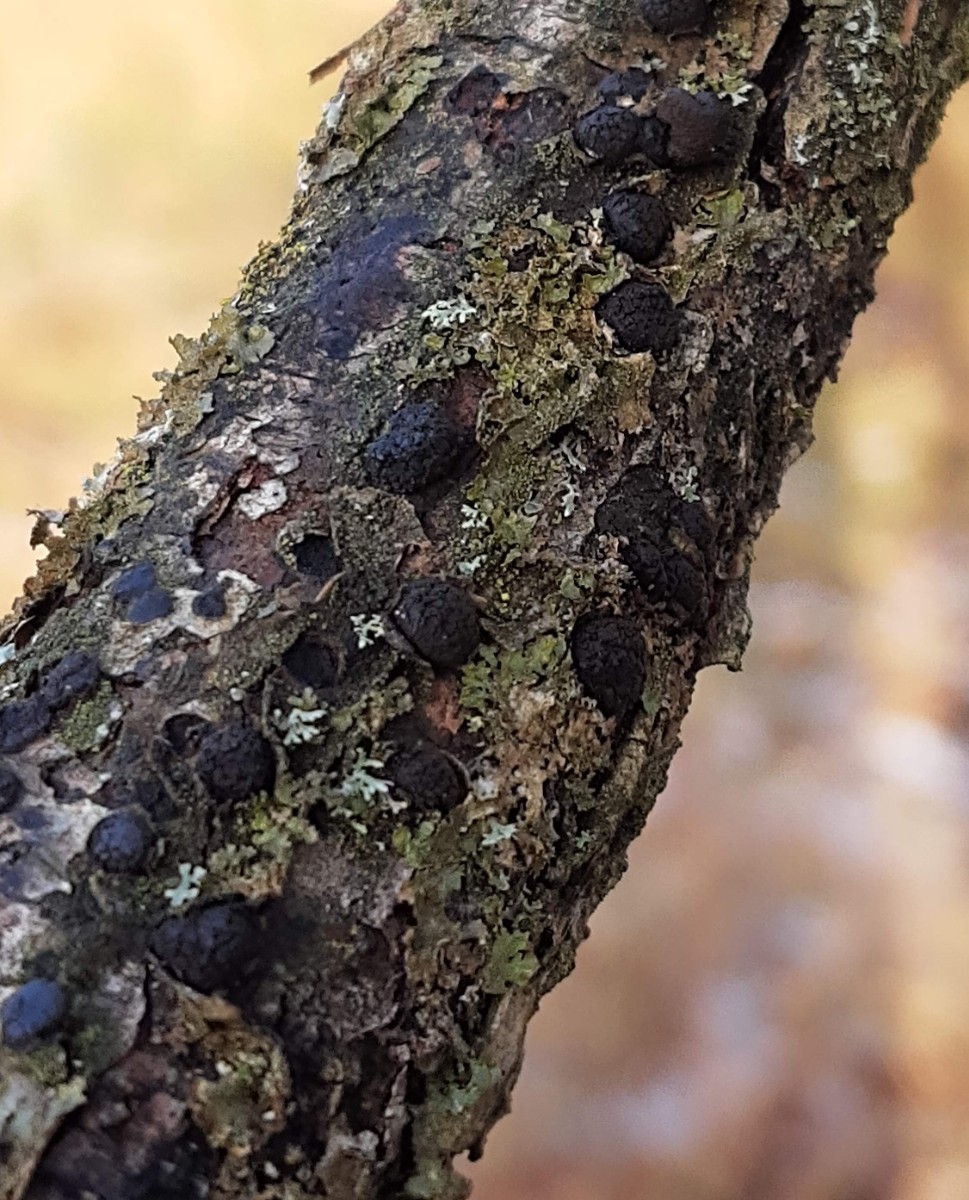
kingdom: Fungi
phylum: Ascomycota
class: Sordariomycetes
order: Xylariales
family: Diatrypaceae
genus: Diatrypella
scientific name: Diatrypella quercina
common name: ege-kulskorpe
